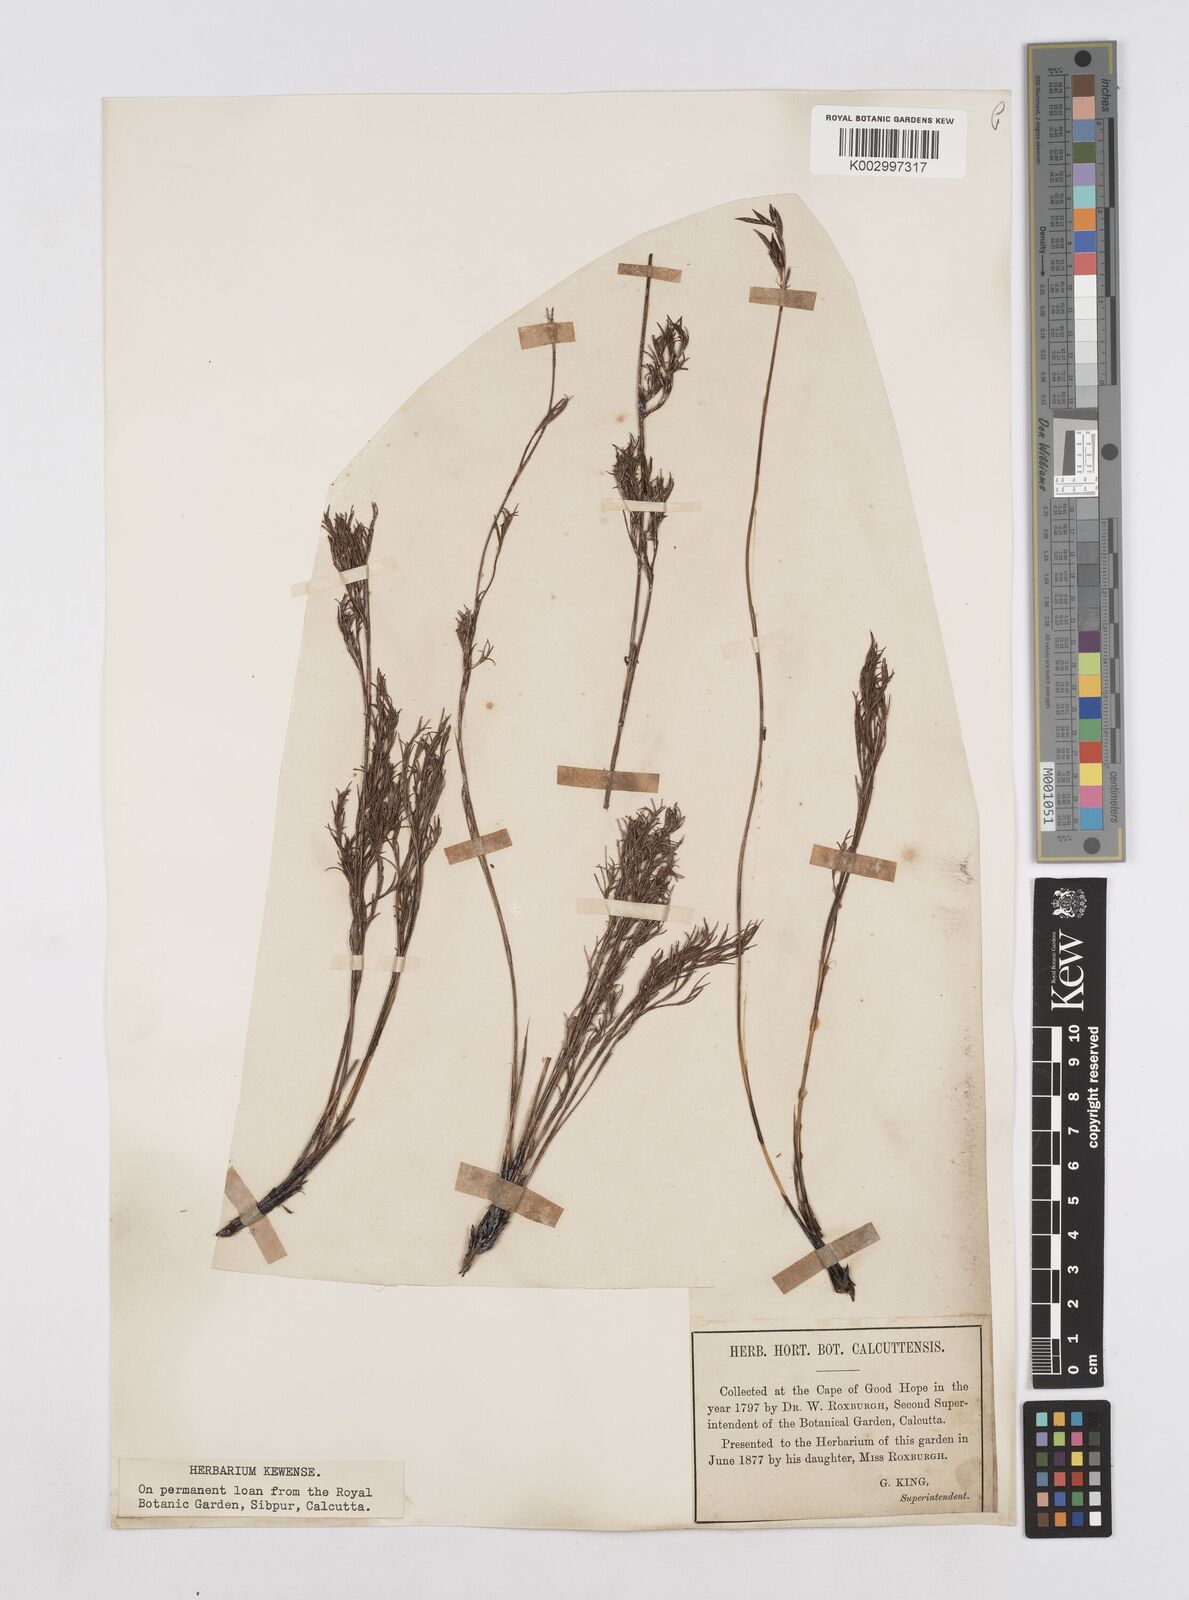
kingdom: Plantae
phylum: Tracheophyta
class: Liliopsida
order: Poales
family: Restionaceae
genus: Thamnochortus
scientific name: Thamnochortus
